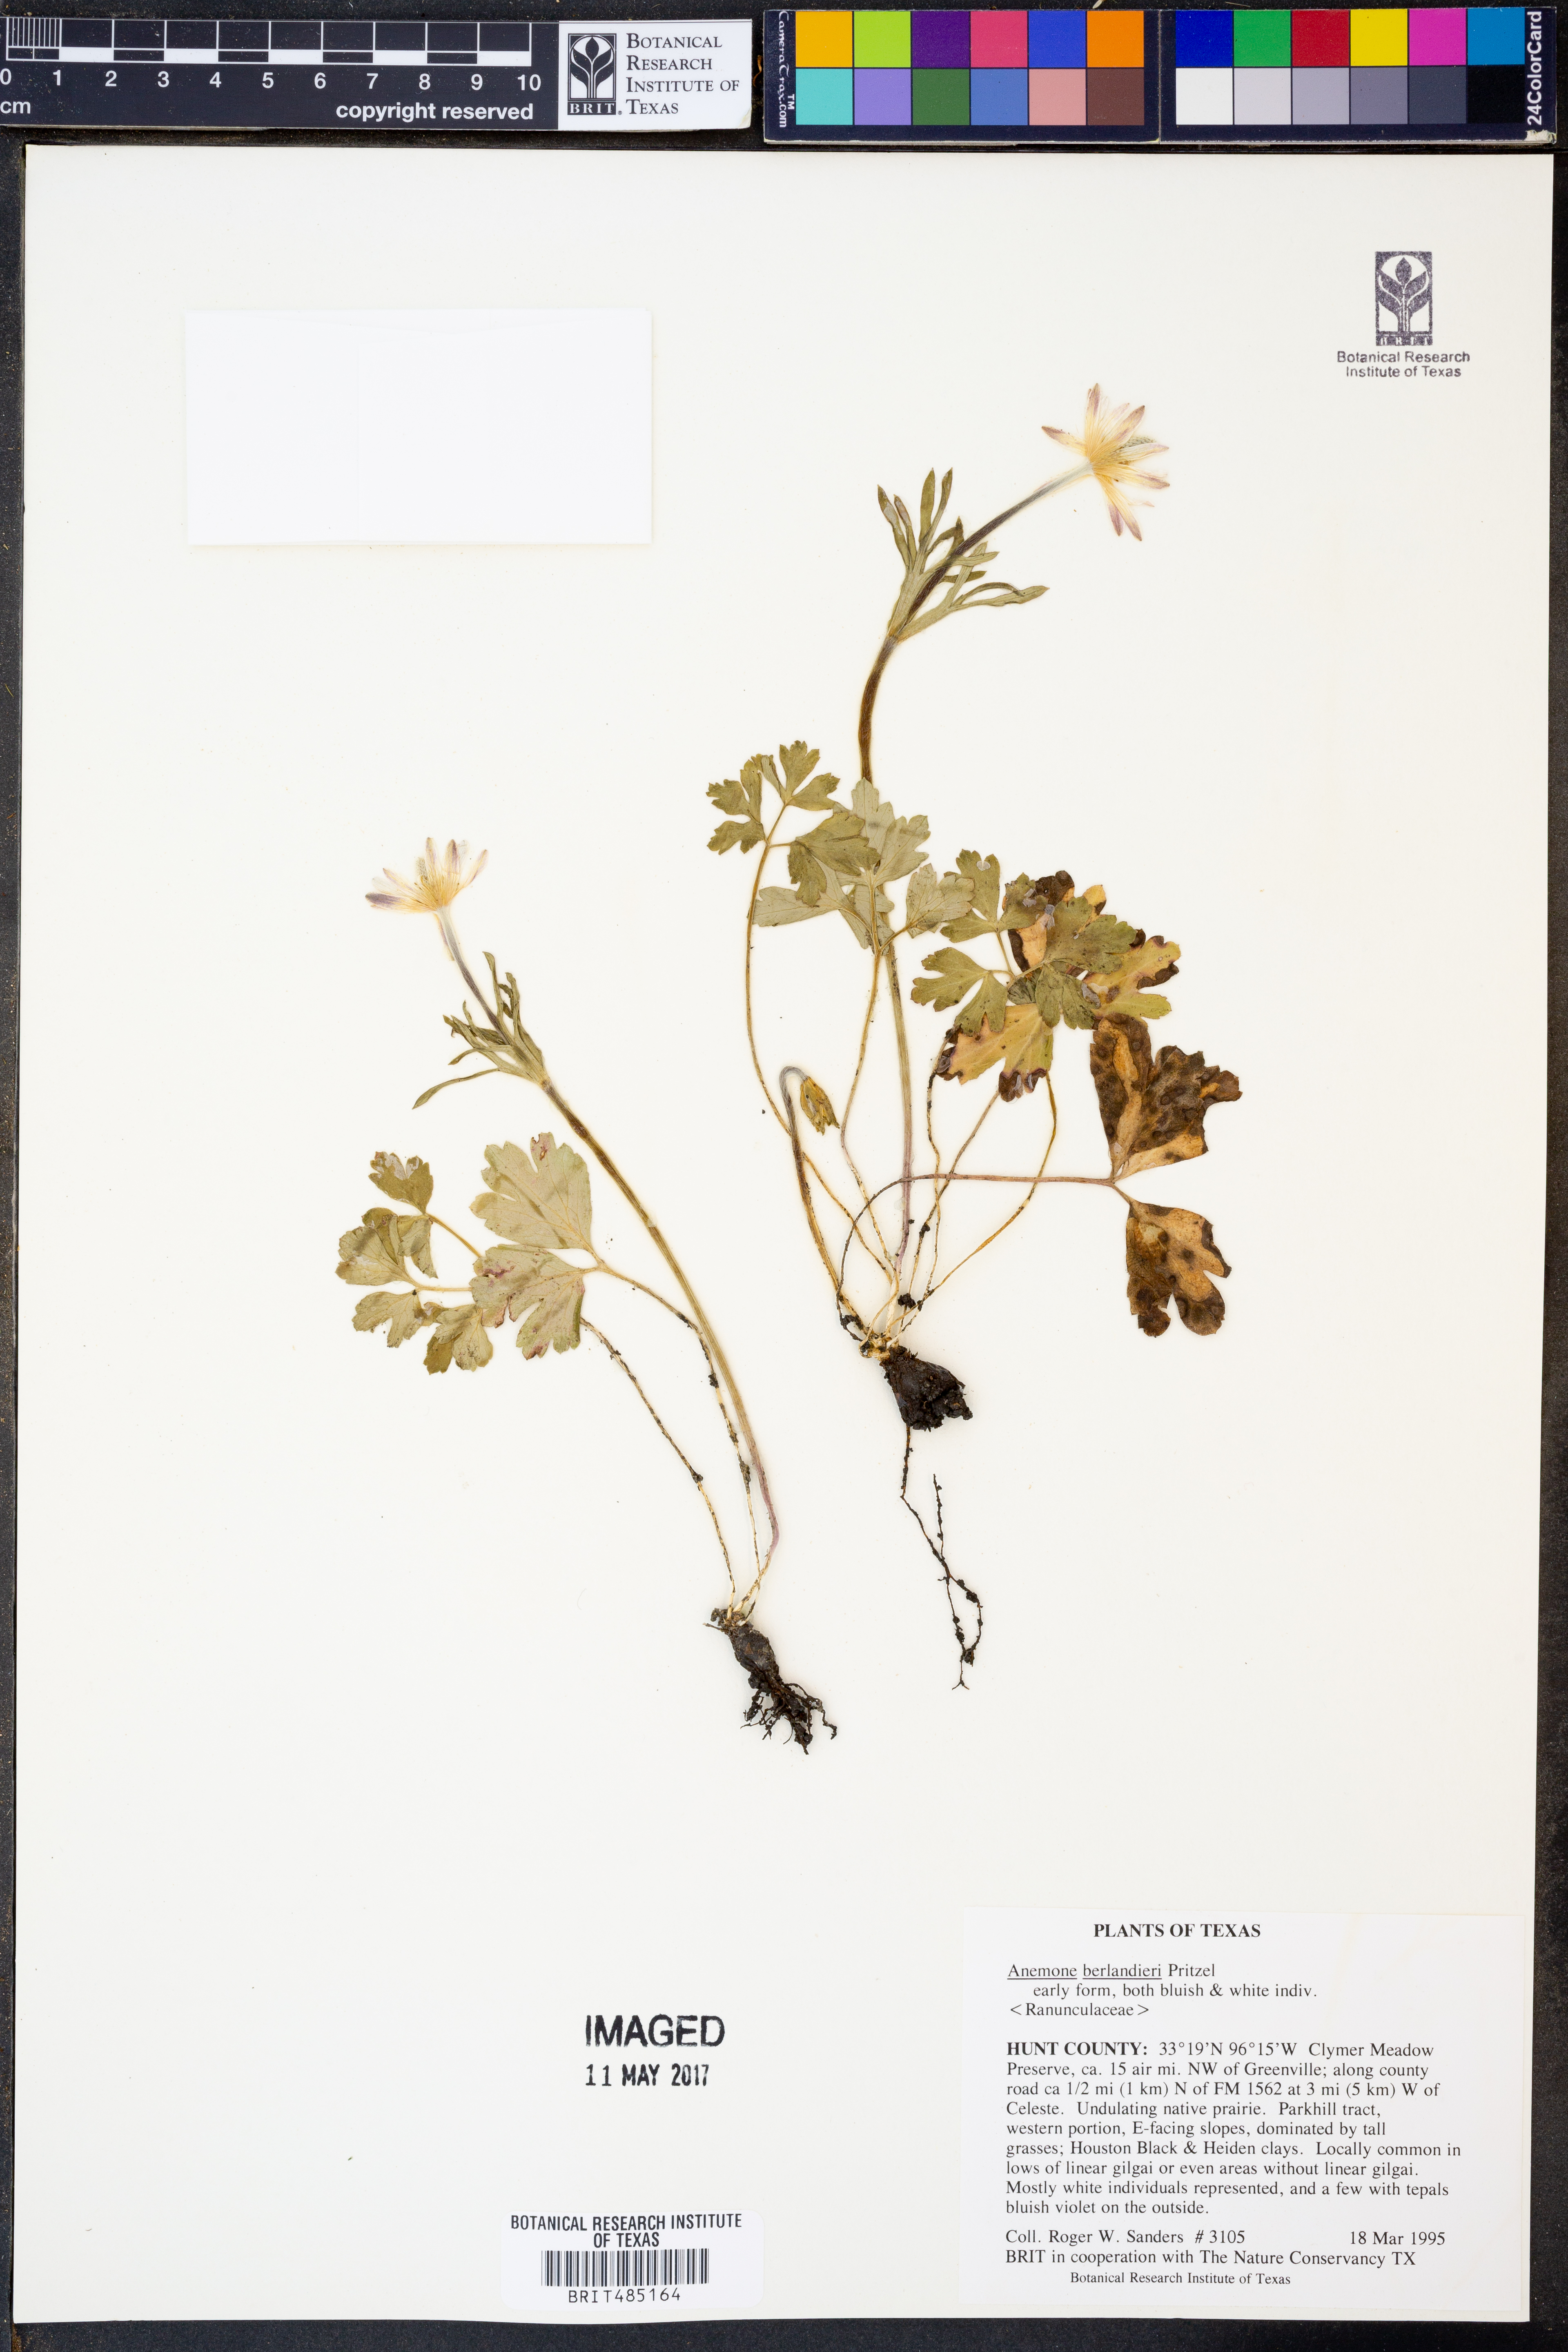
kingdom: Plantae
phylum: Tracheophyta
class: Magnoliopsida
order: Ranunculales
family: Ranunculaceae
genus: Anemone
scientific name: Anemone berlandieri
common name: Ten-petal anemone
